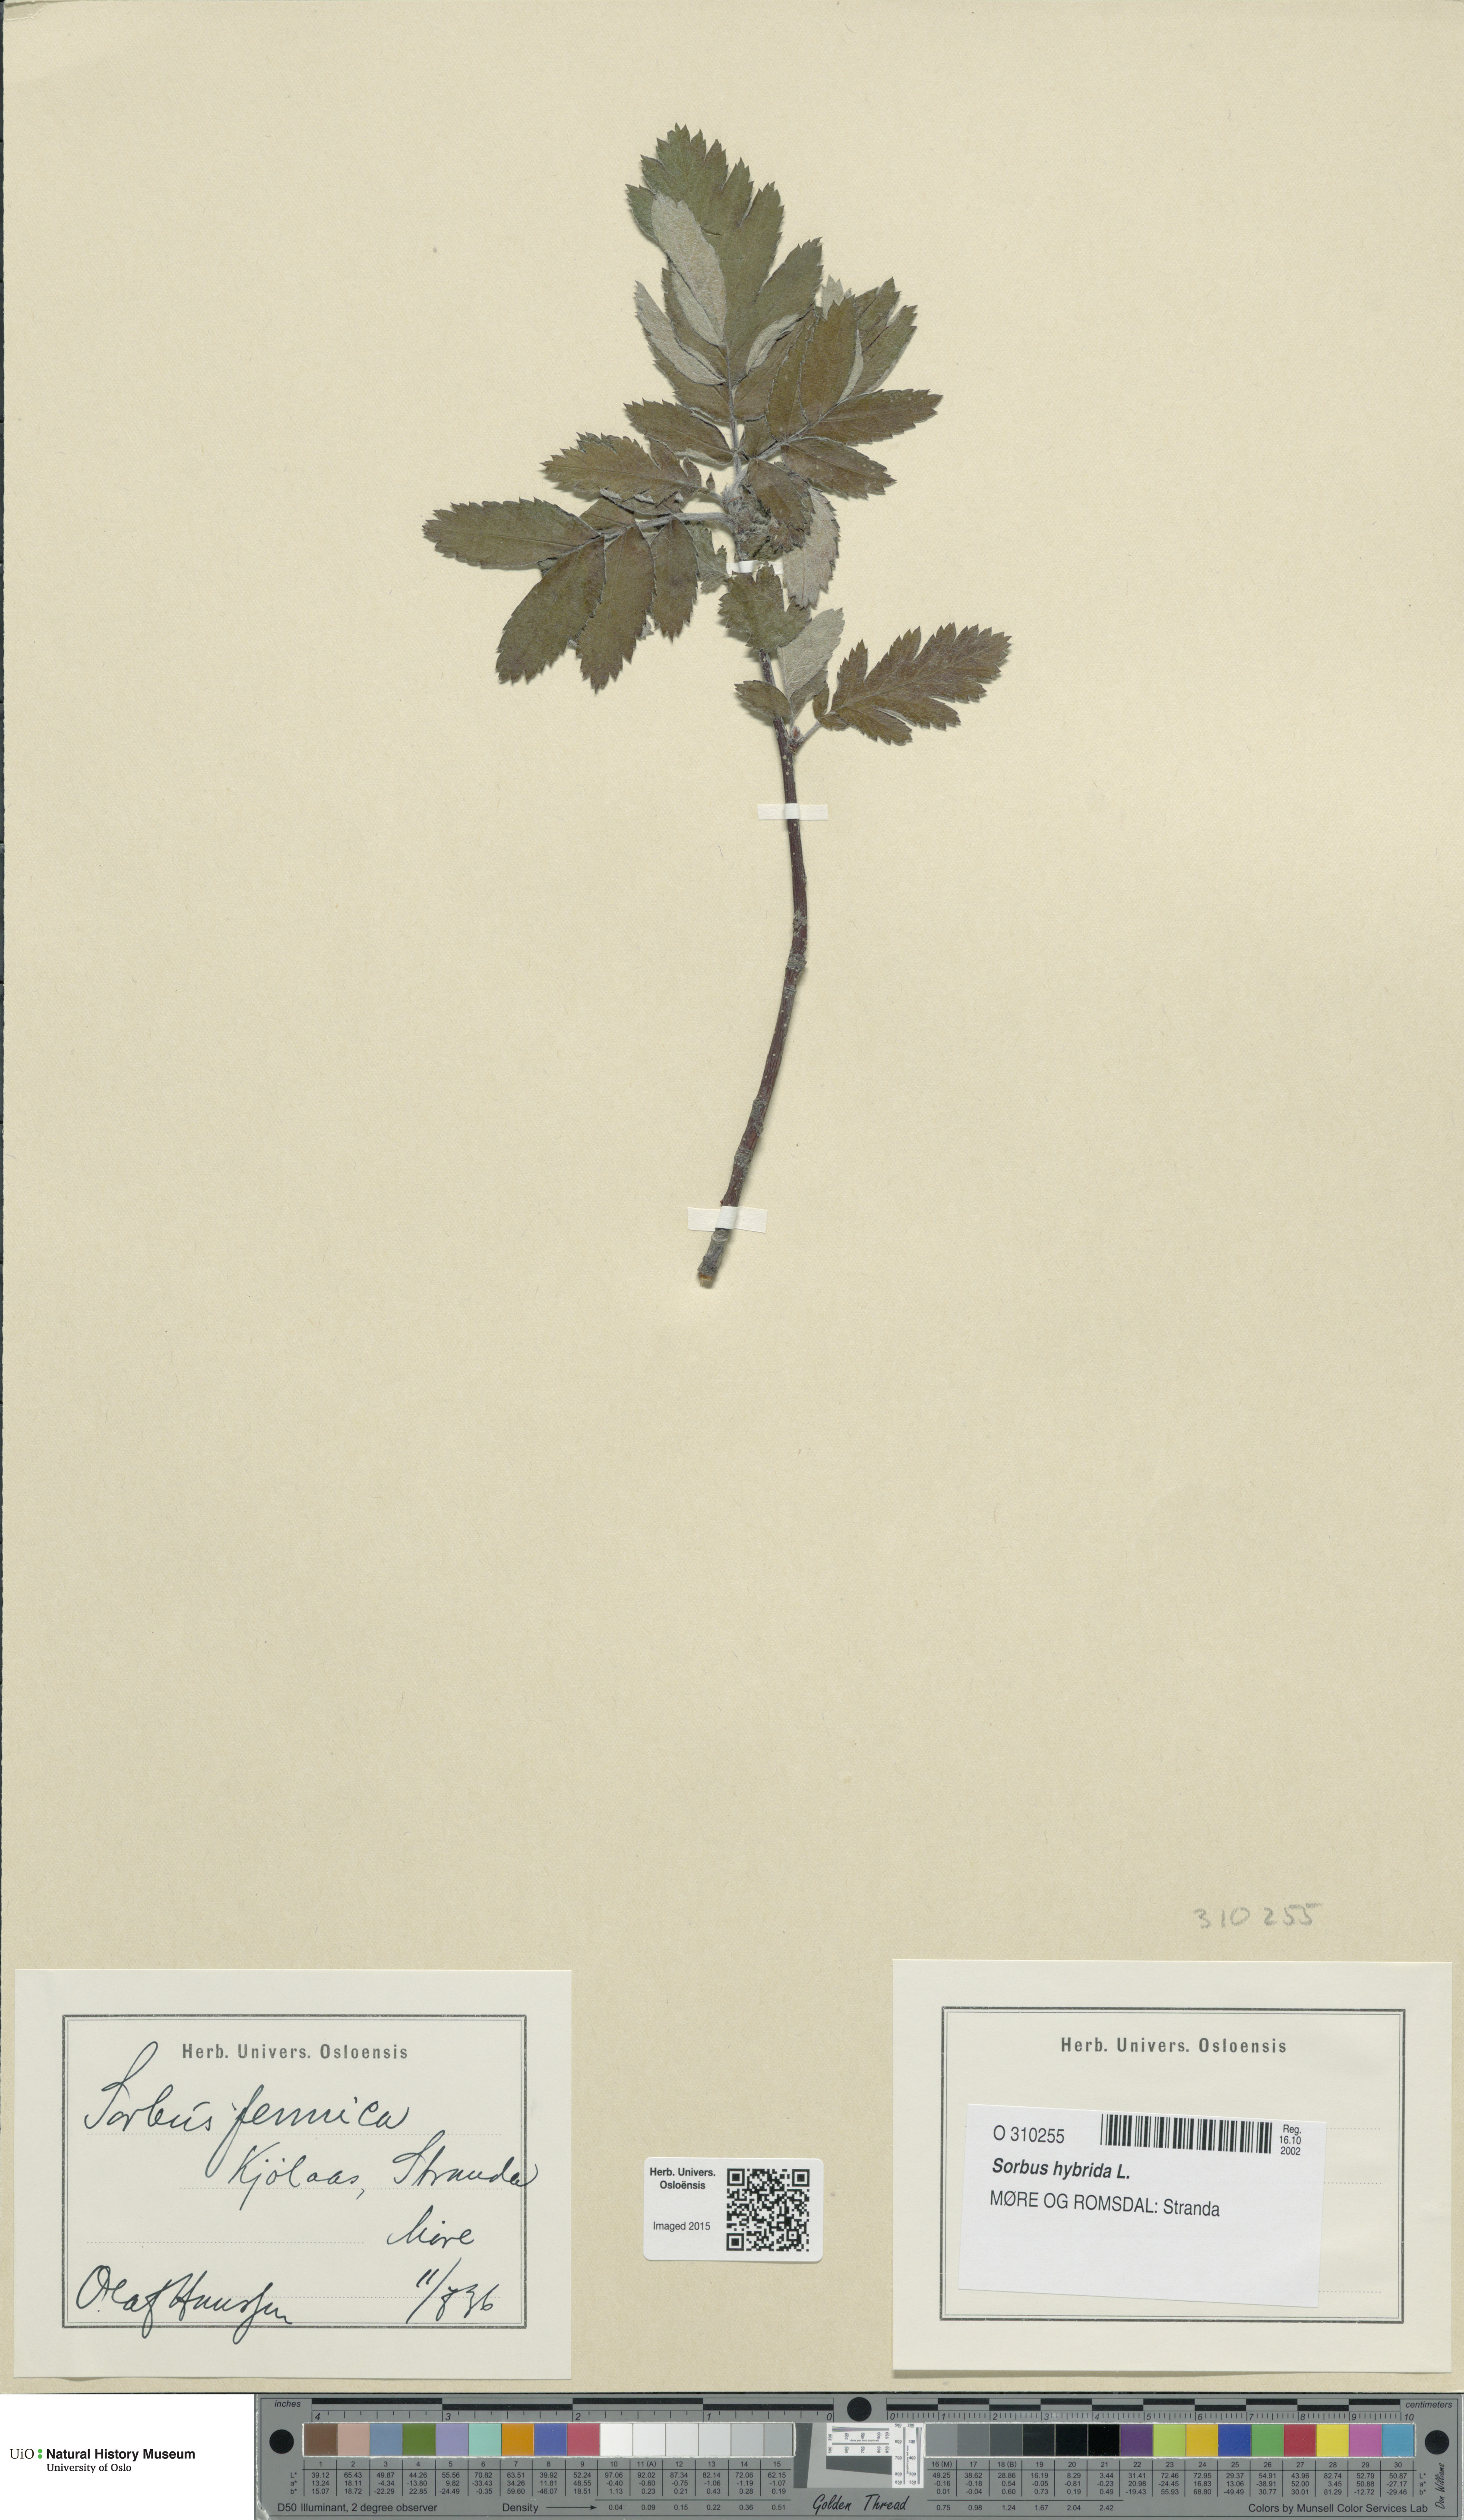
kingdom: Plantae
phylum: Tracheophyta
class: Magnoliopsida
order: Rosales
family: Rosaceae
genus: Hedlundia
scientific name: Hedlundia hybrida
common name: Swedish service-tree
